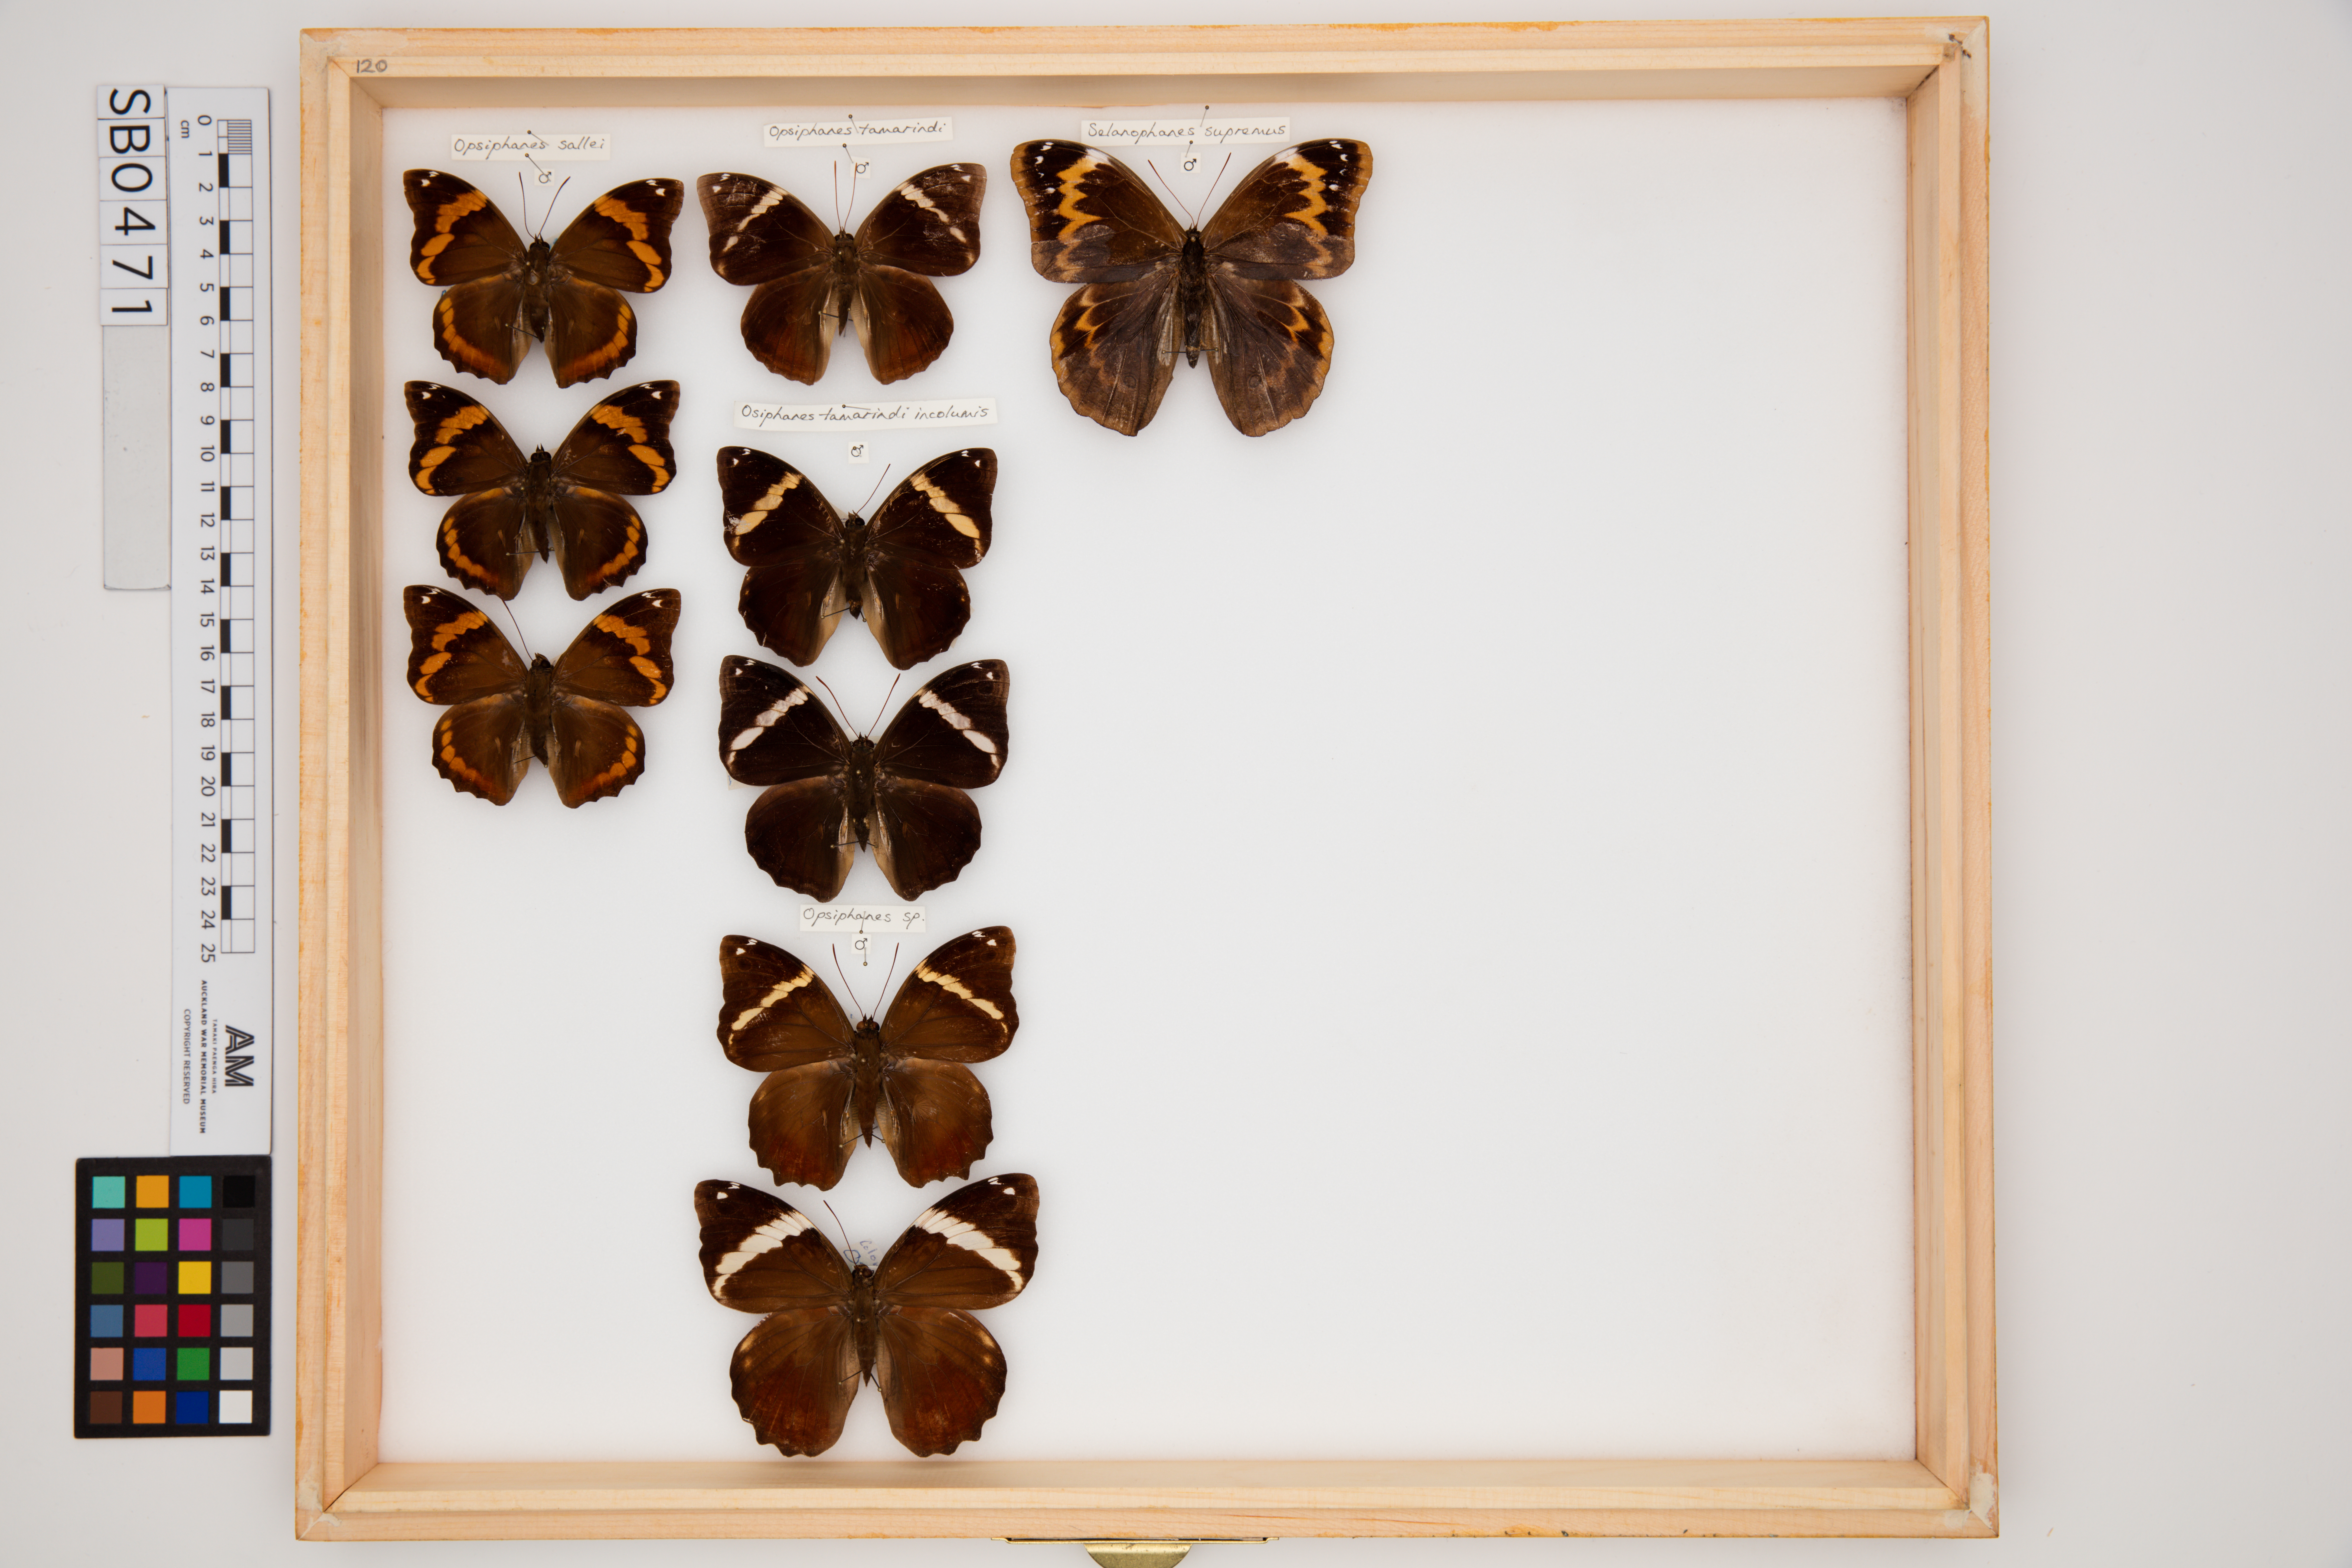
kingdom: Animalia
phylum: Arthropoda
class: Insecta
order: Lepidoptera
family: Nymphalidae
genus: Opsiphanes
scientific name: Opsiphanes
